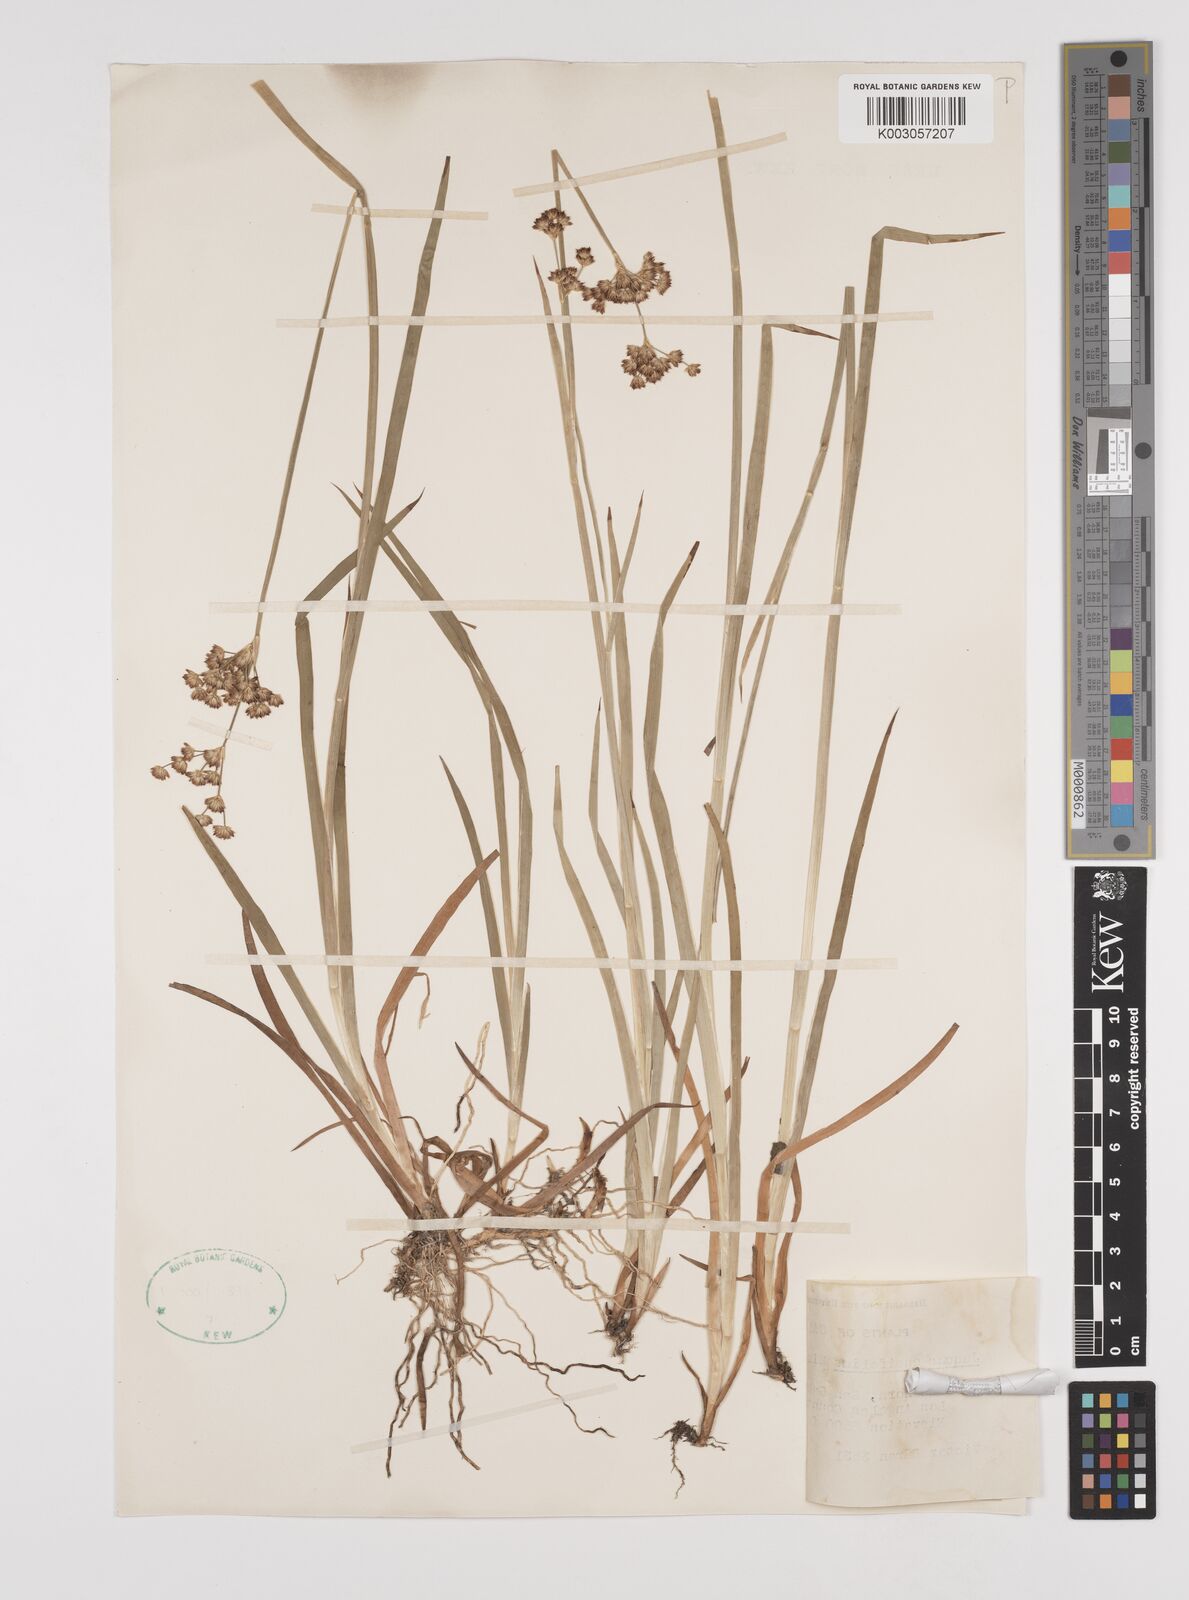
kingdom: Plantae
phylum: Tracheophyta
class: Liliopsida
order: Poales
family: Juncaceae
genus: Juncus
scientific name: Juncus ensifolius
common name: Sword-leaved rush
